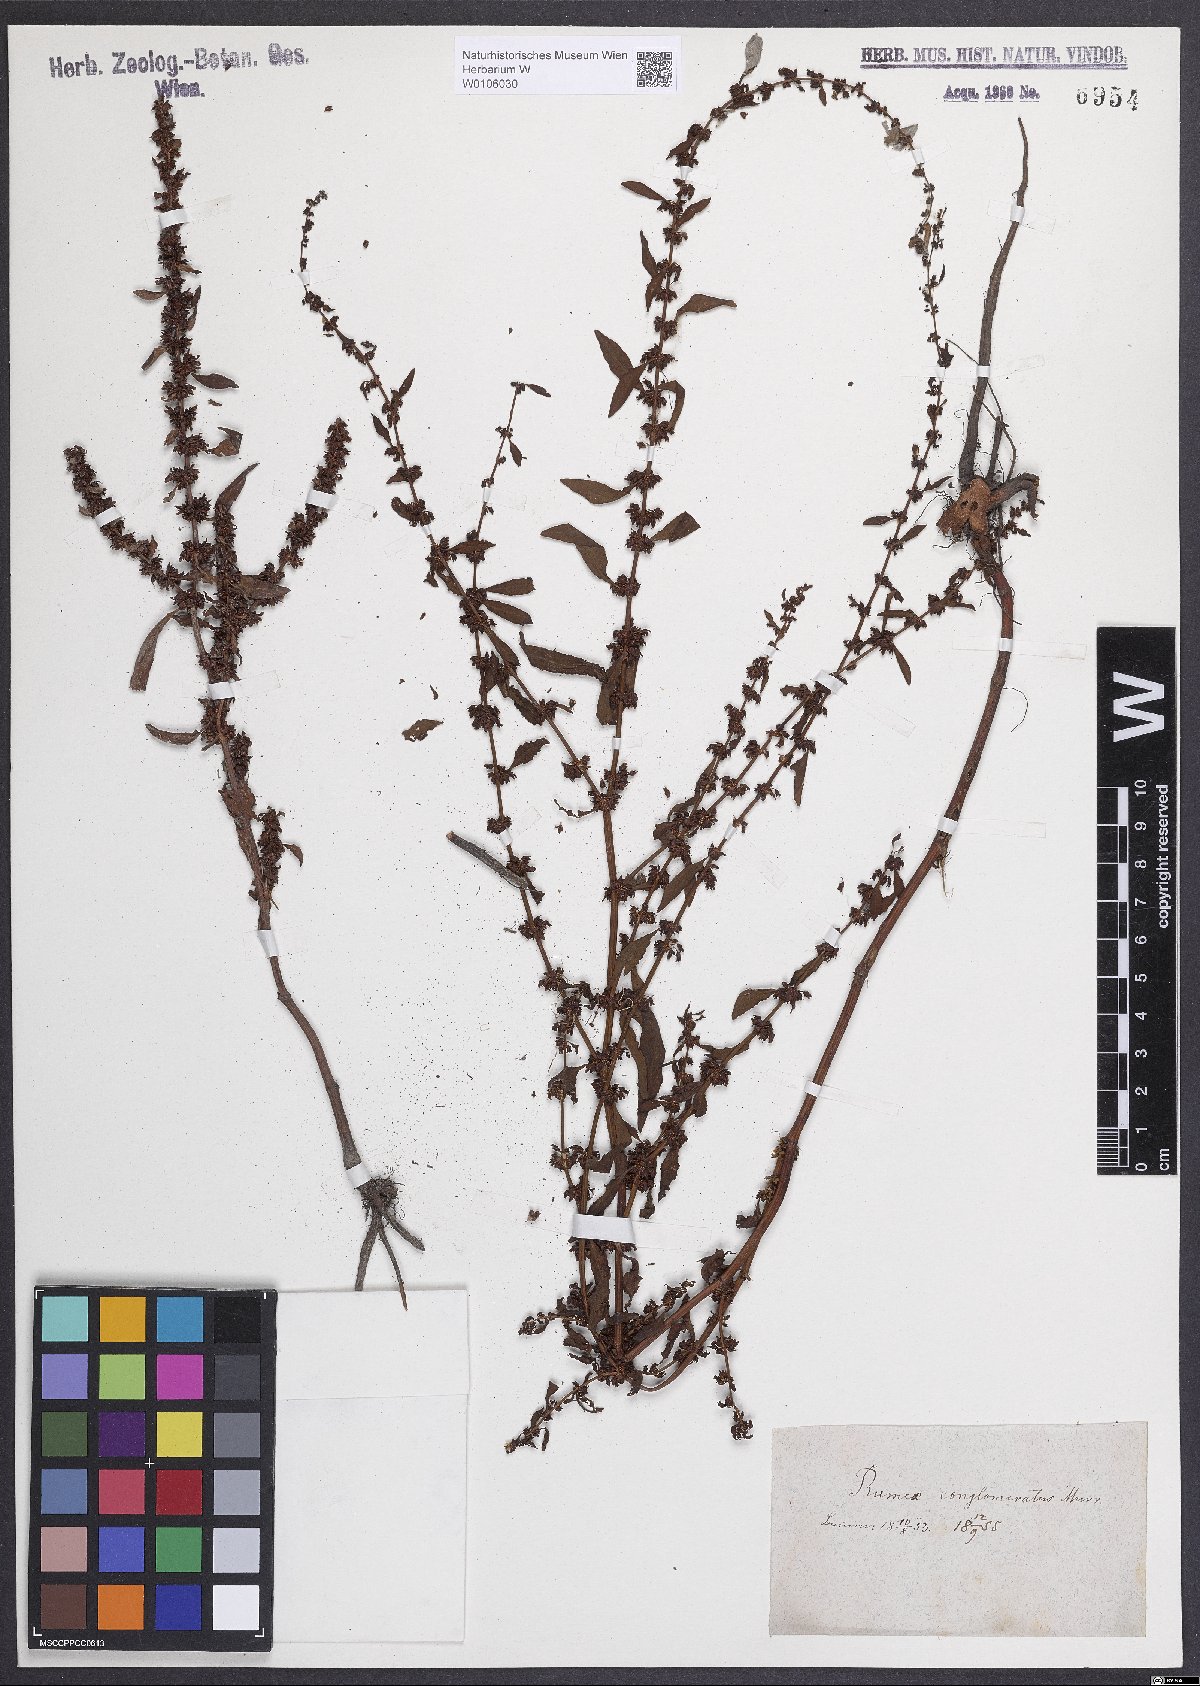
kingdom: Plantae
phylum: Tracheophyta
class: Magnoliopsida
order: Caryophyllales
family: Polygonaceae
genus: Rumex
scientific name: Rumex conglomeratus
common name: Clustered dock
